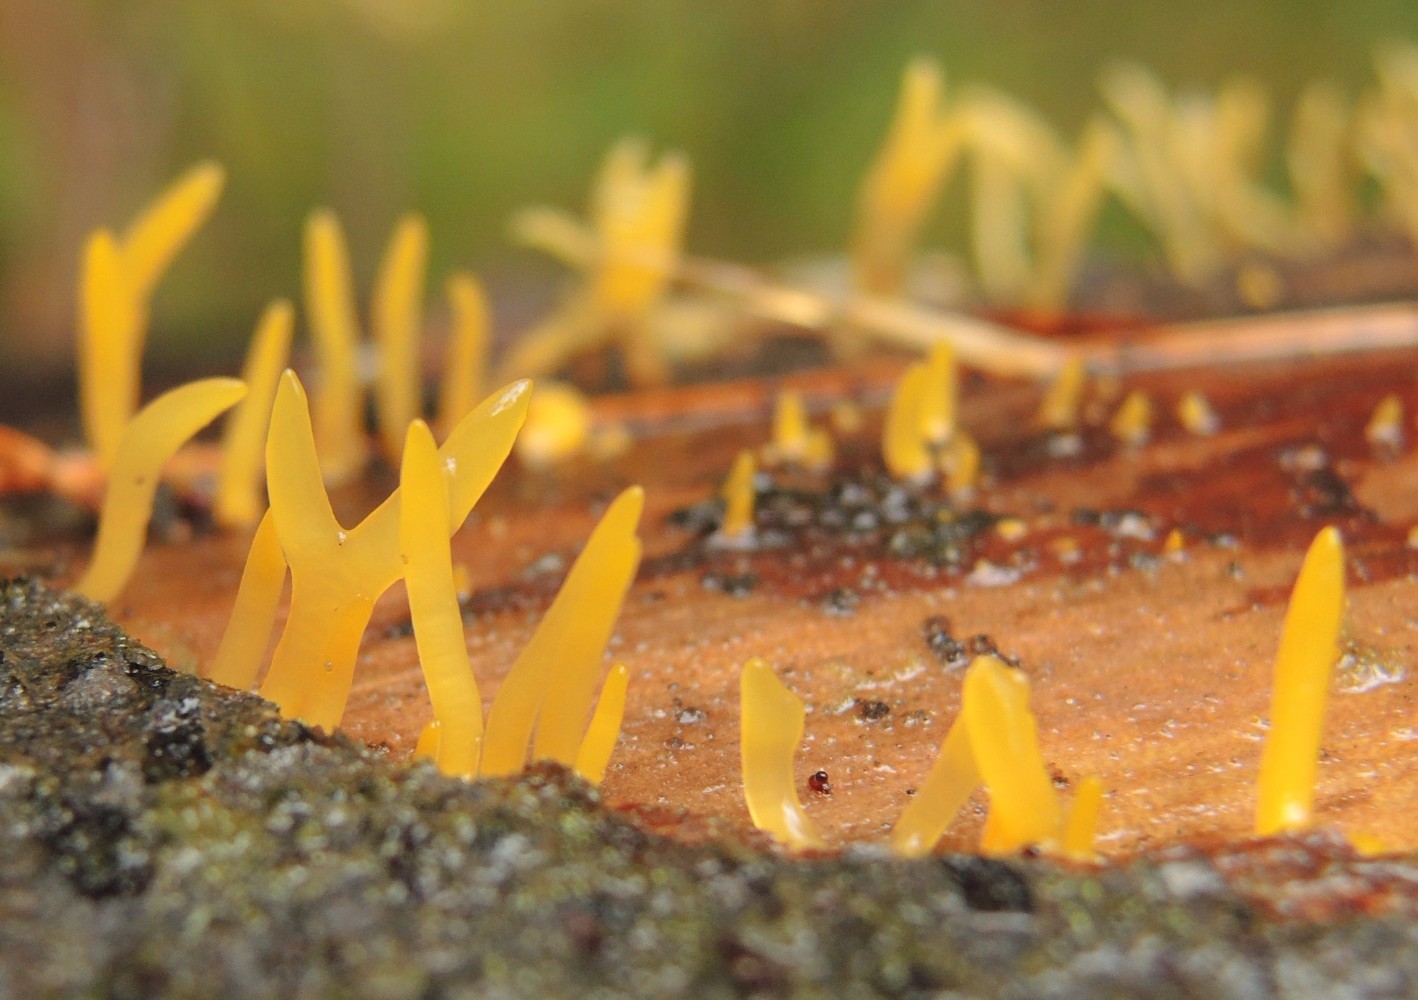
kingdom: Fungi
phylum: Basidiomycota
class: Dacrymycetes
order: Dacrymycetales
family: Dacrymycetaceae
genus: Calocera
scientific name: Calocera furcata
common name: fyrre-guldgaffel
